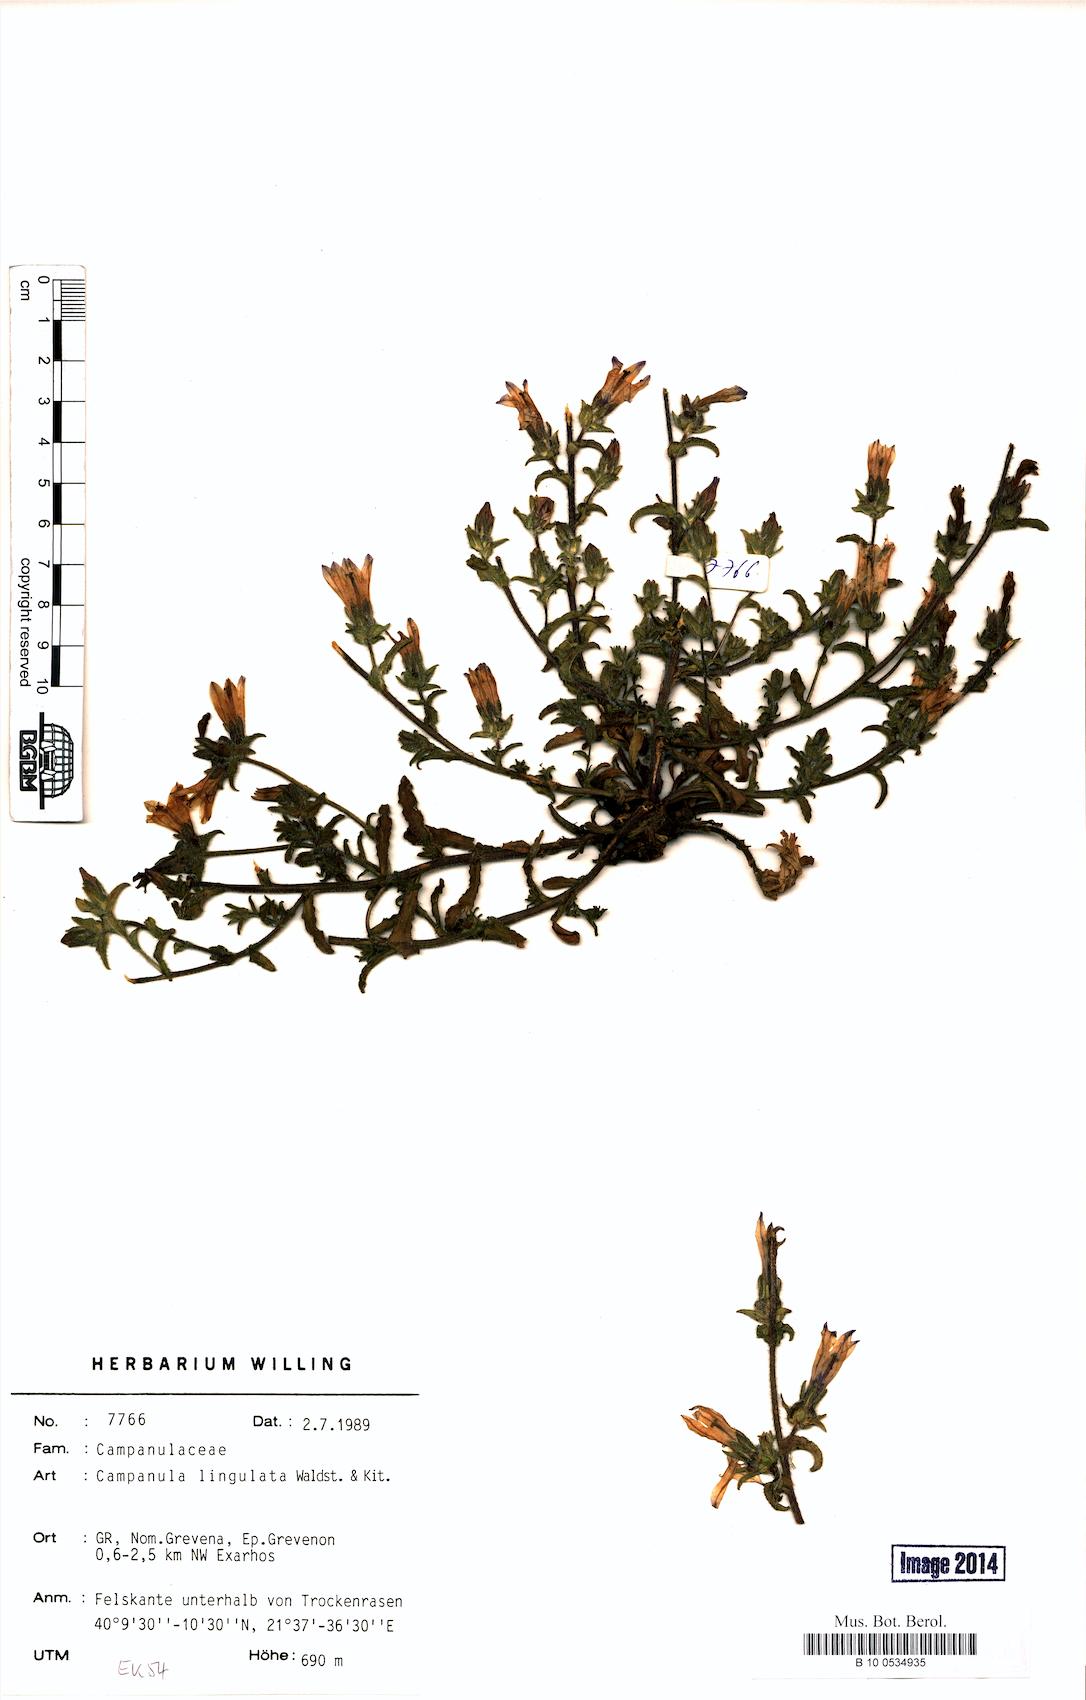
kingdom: Plantae
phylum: Tracheophyta
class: Magnoliopsida
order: Asterales
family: Campanulaceae
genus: Campanula
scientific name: Campanula lingulata
